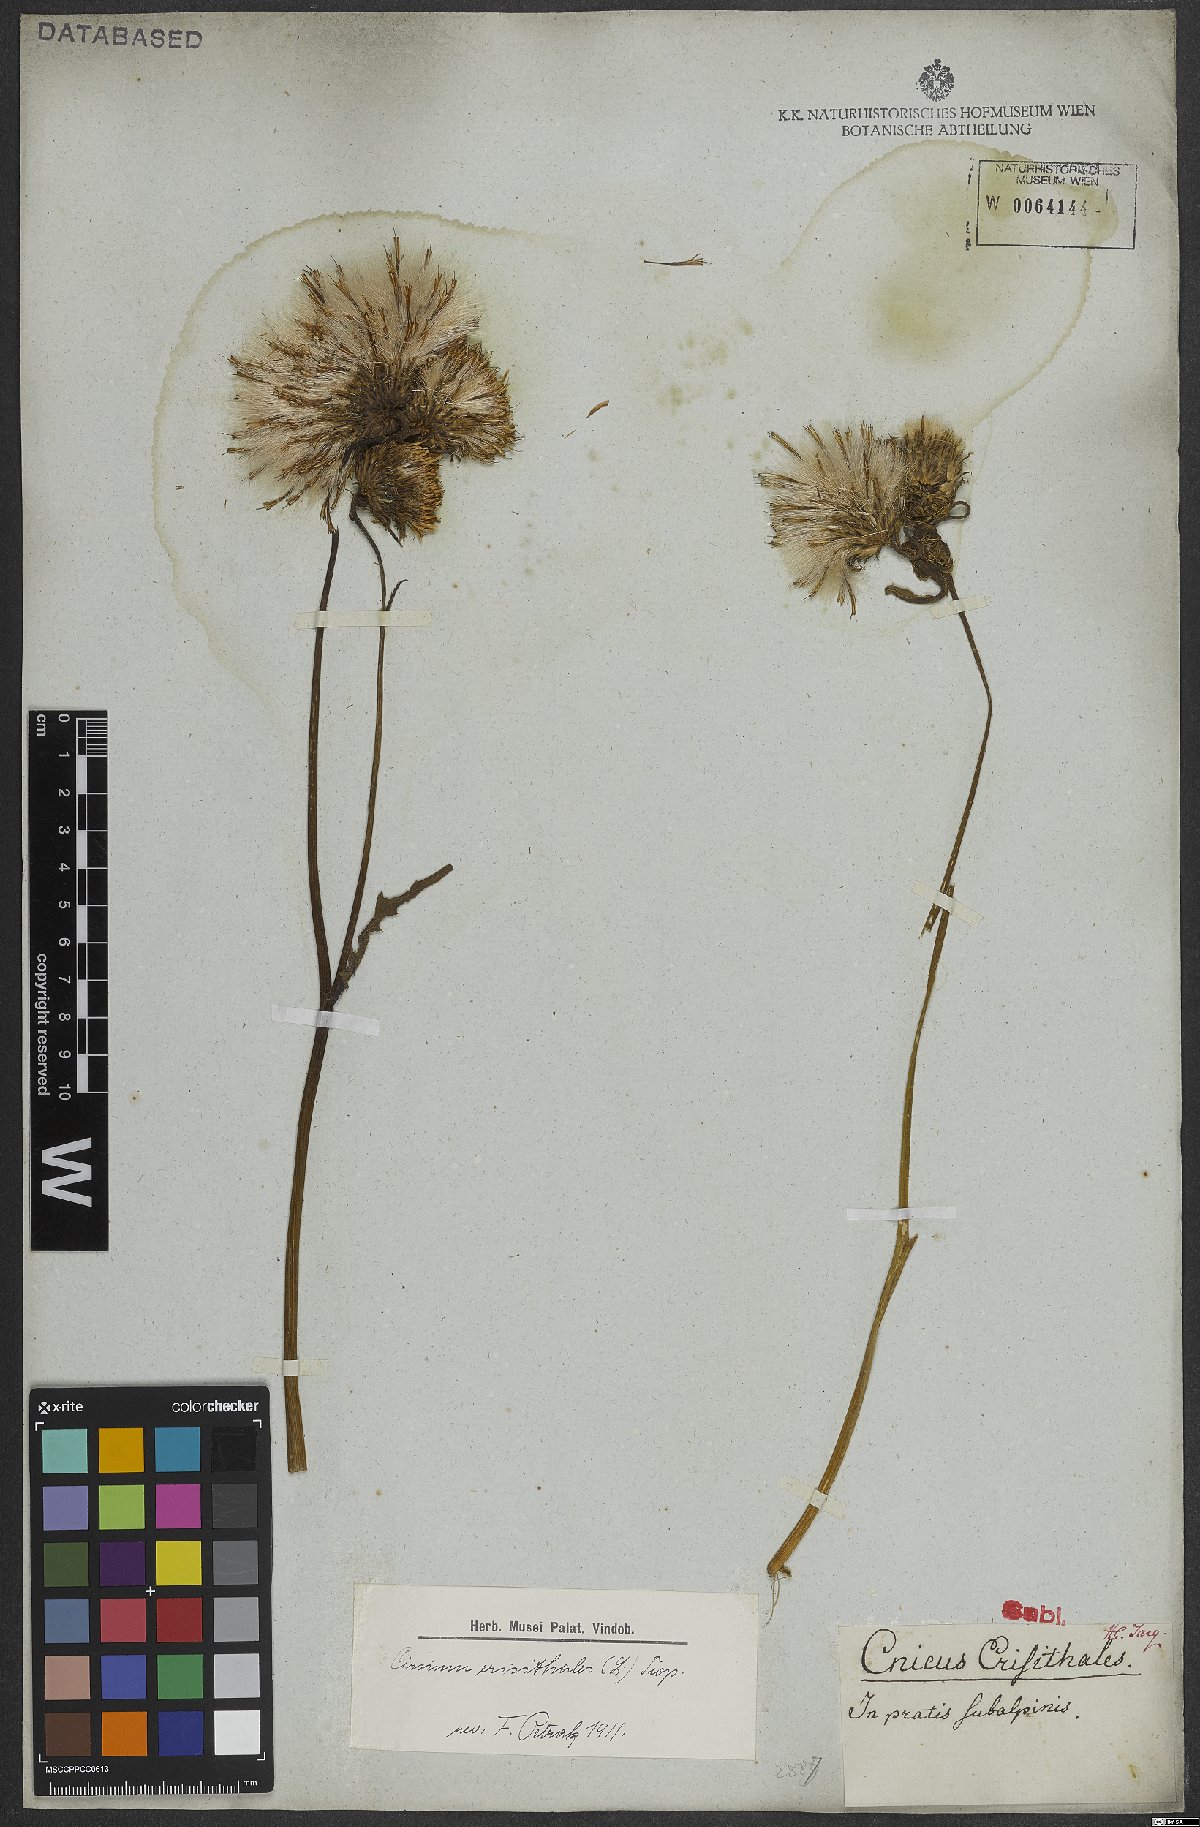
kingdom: Plantae
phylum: Tracheophyta
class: Magnoliopsida
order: Asterales
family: Asteraceae
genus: Cirsium
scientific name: Cirsium erisithales
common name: Yellow thistle
